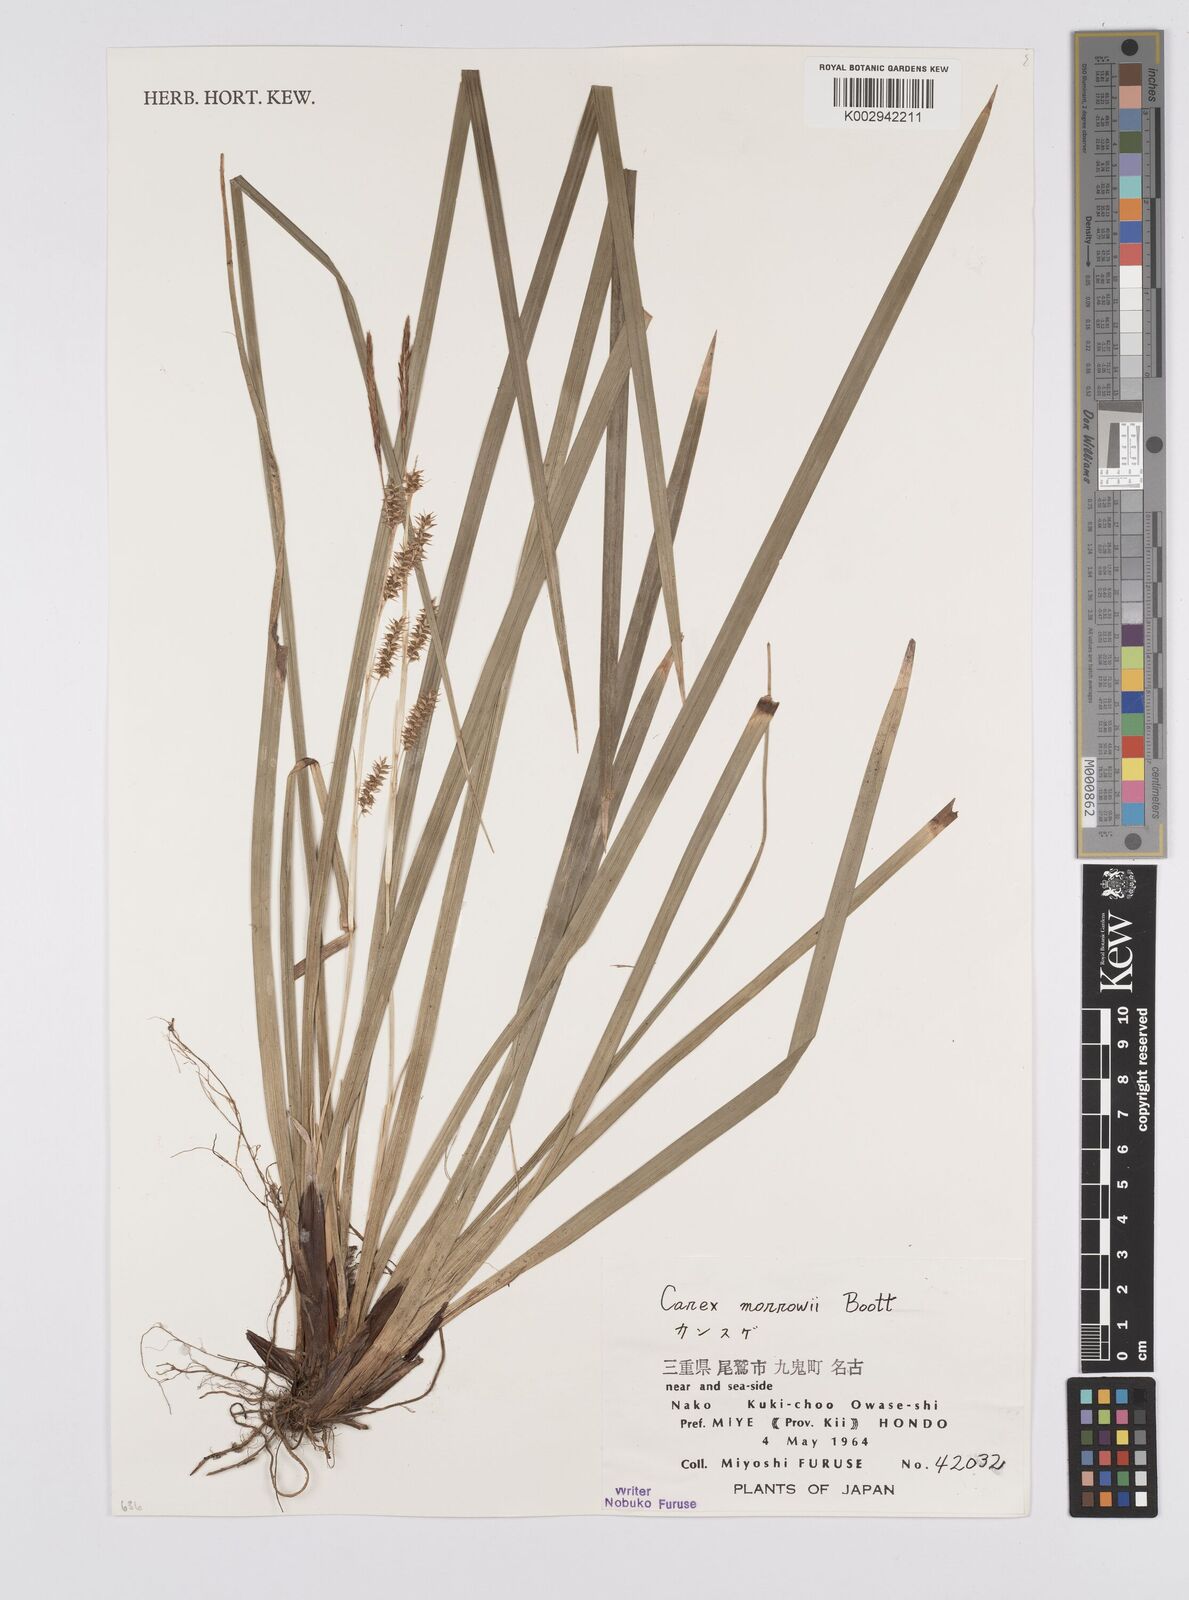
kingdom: Plantae
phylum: Tracheophyta
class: Liliopsida
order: Poales
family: Cyperaceae
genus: Carex
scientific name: Carex morrowii
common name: Japanese sedge
